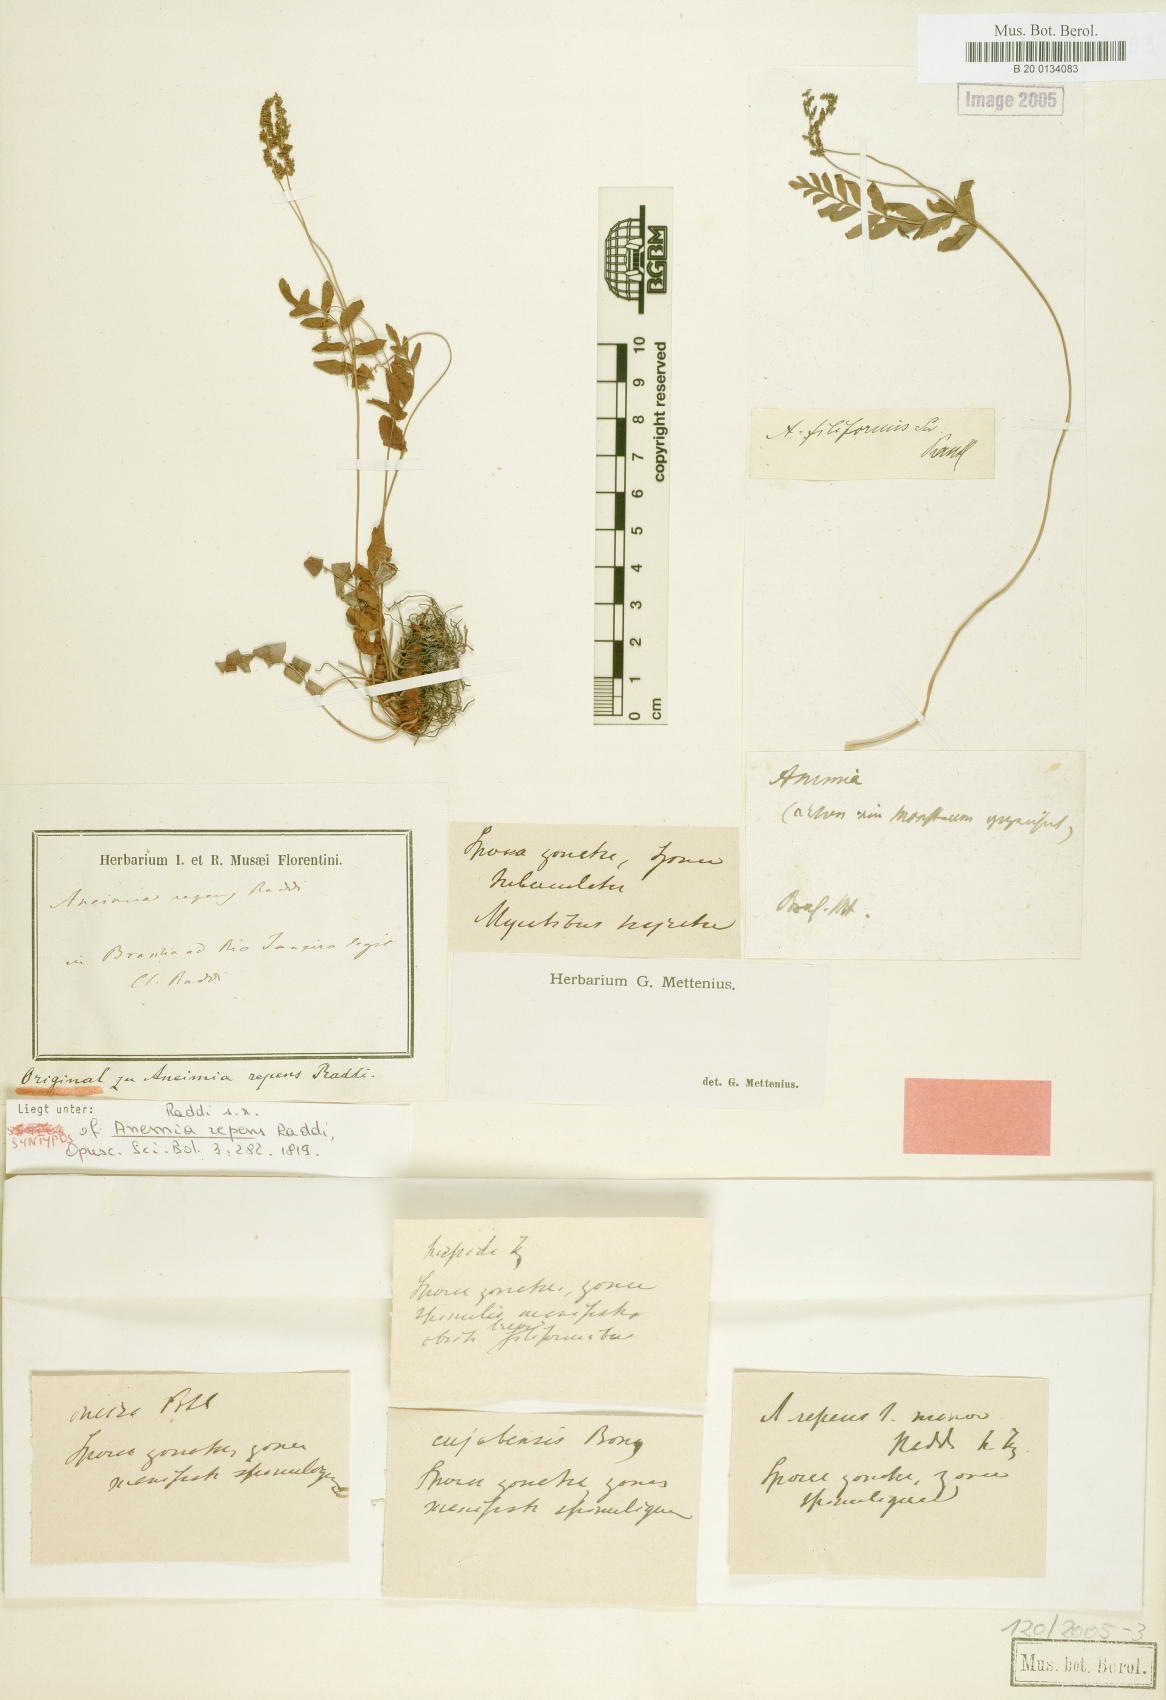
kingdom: Plantae
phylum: Tracheophyta
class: Polypodiopsida
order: Schizaeales
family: Anemiaceae
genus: Anemia
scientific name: Anemia repens
